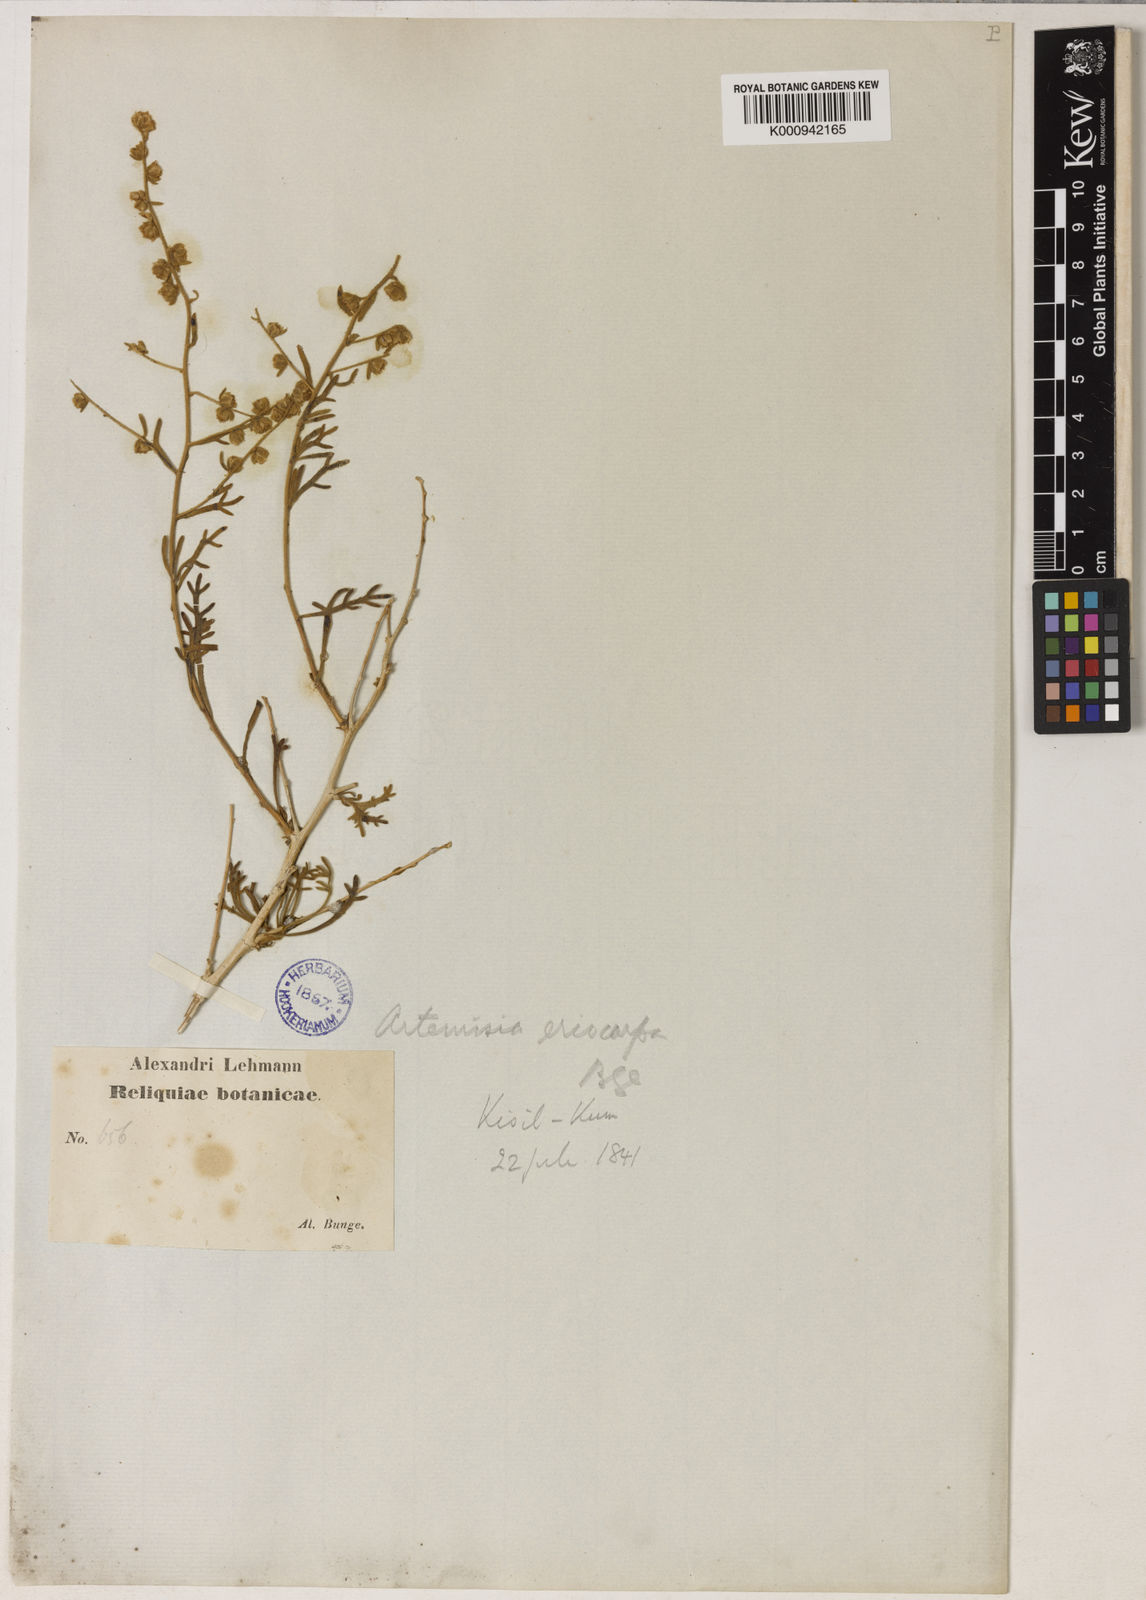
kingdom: Plantae
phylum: Tracheophyta
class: Magnoliopsida
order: Asterales
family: Asteraceae
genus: Mausolea
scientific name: Mausolea eriocarpa
